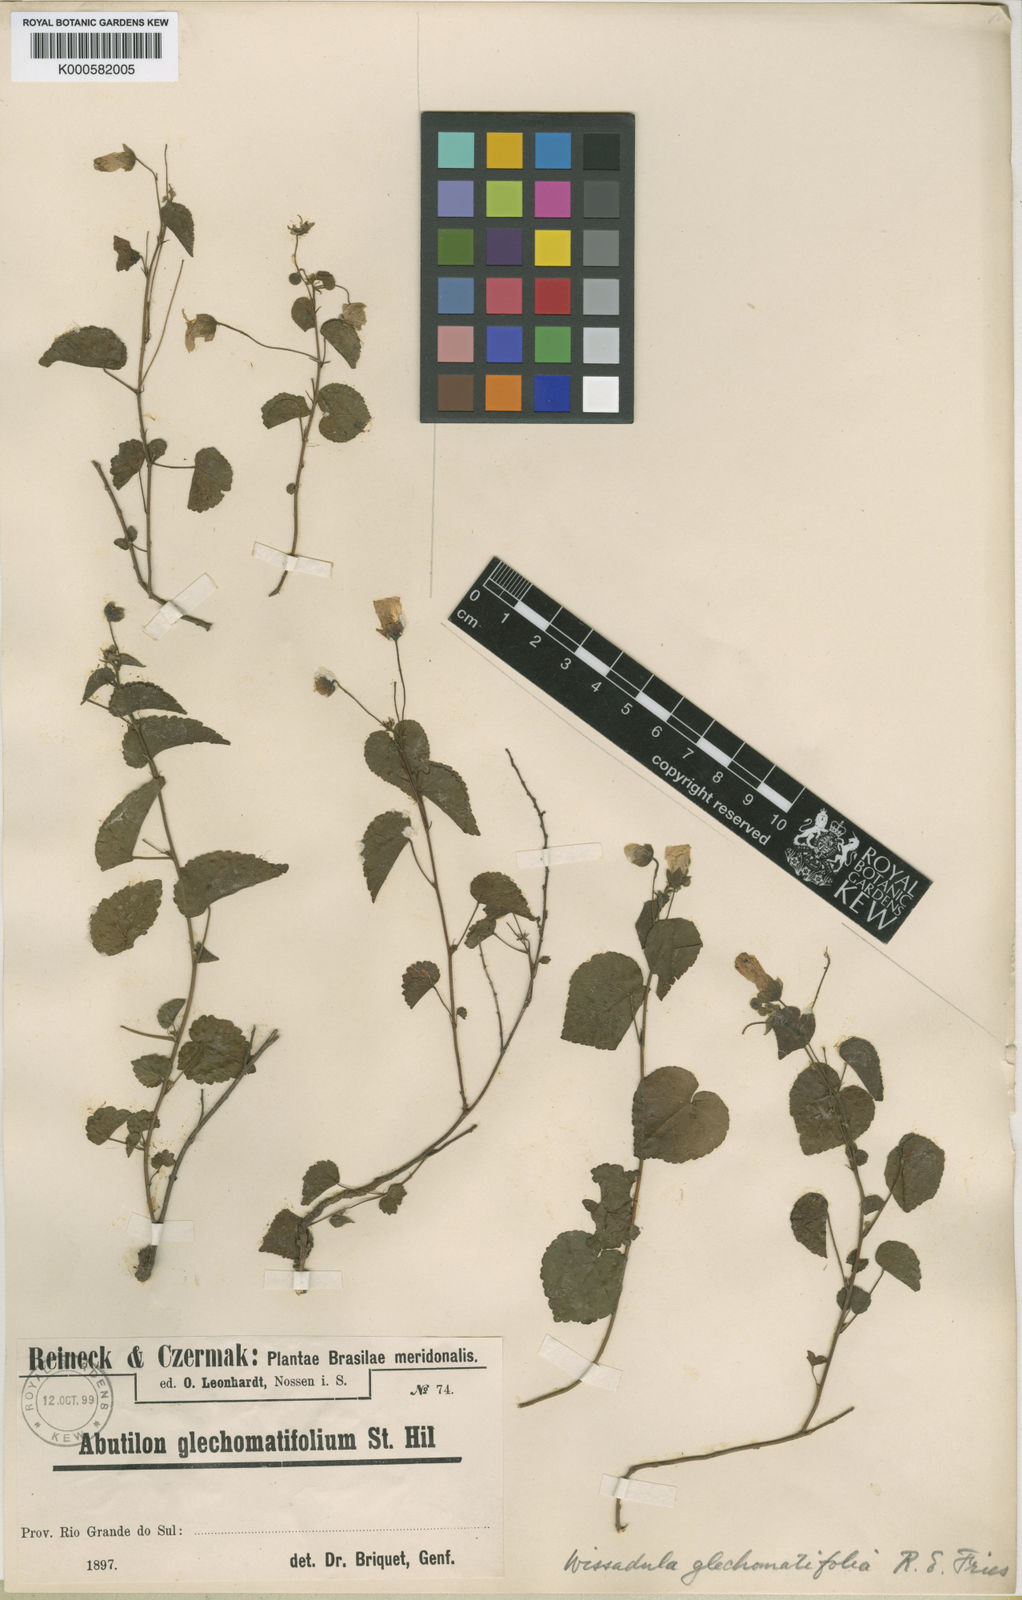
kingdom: Plantae
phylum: Tracheophyta
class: Magnoliopsida
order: Malvales
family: Malvaceae
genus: Wissadula
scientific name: Wissadula
